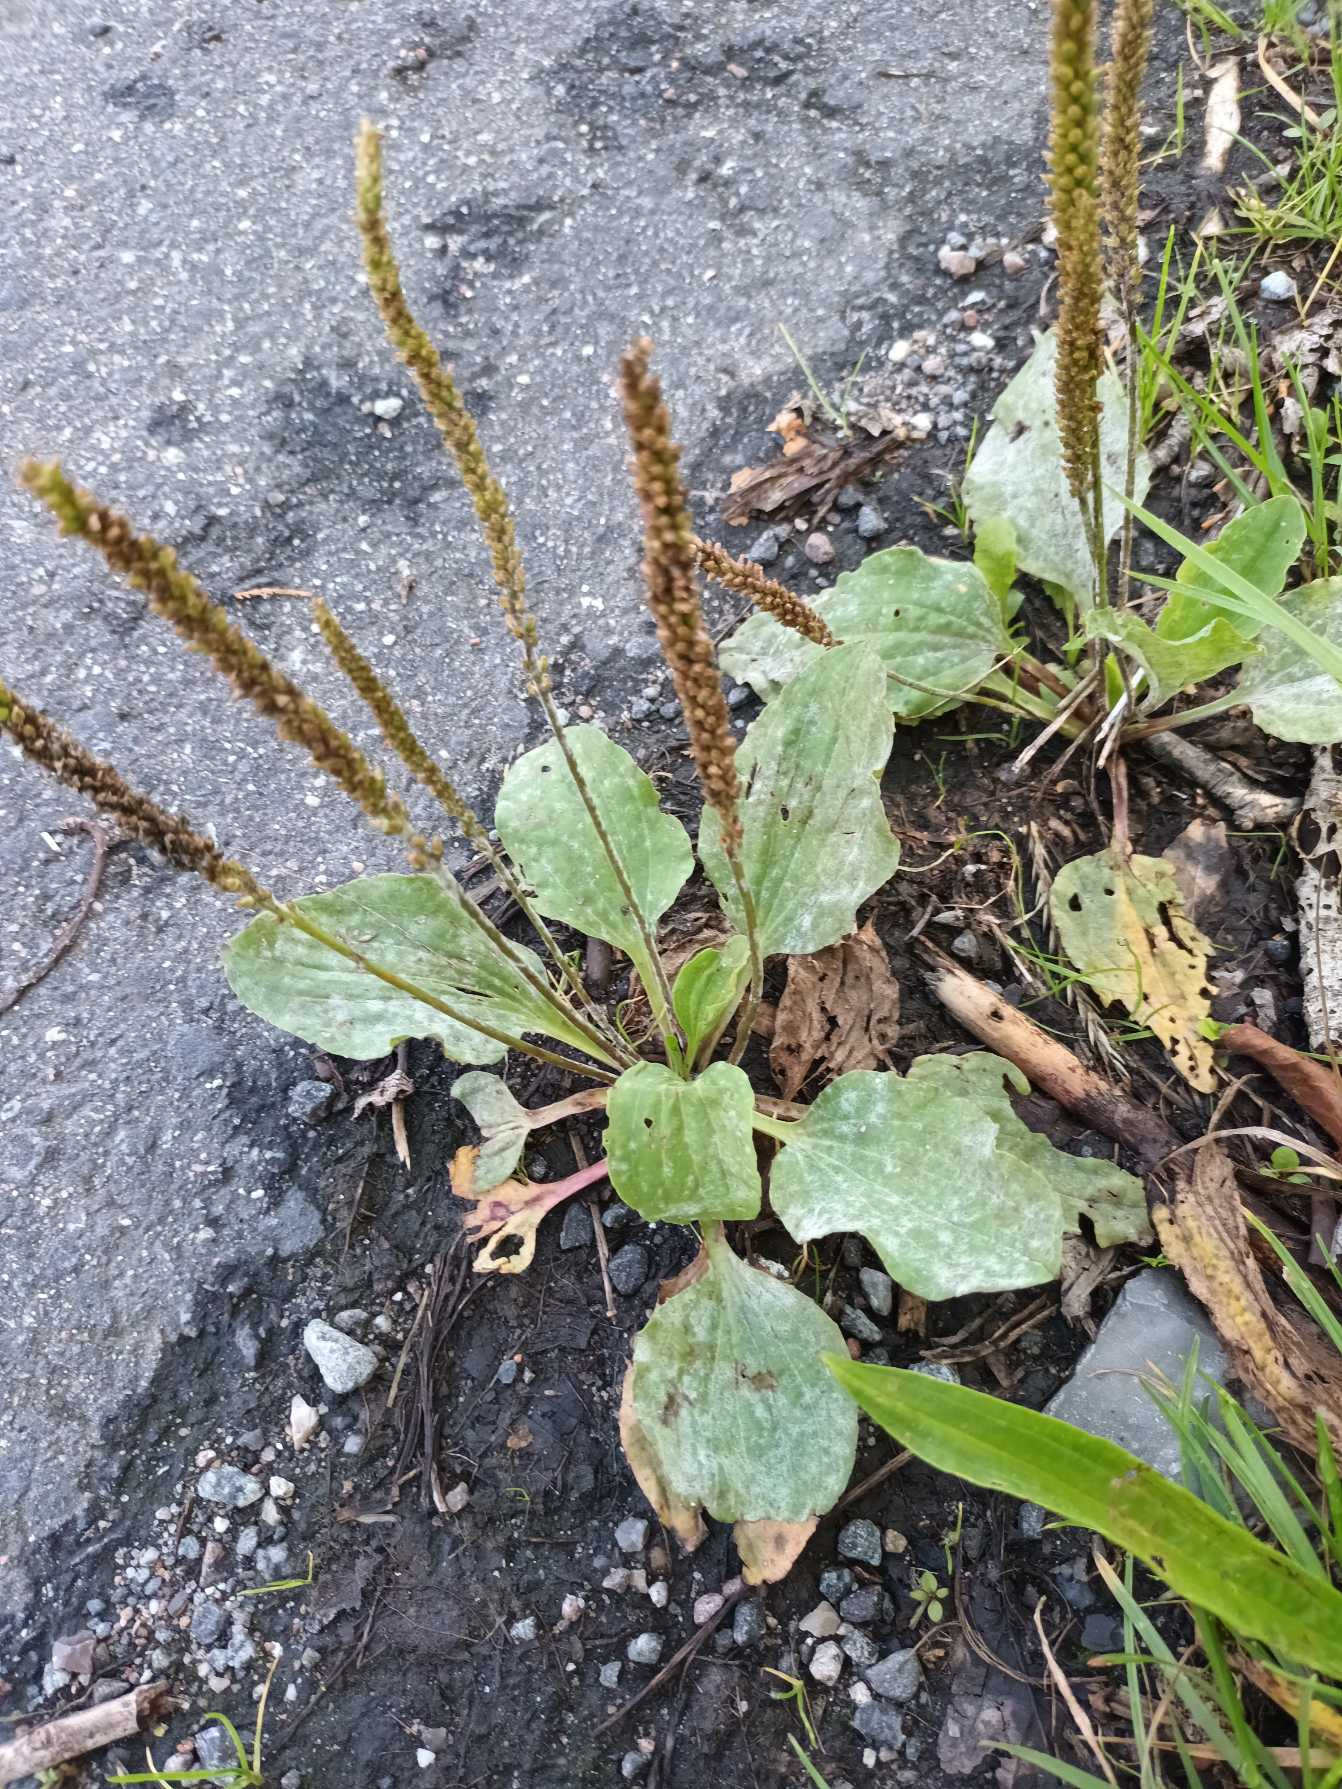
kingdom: Plantae
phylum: Tracheophyta
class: Magnoliopsida
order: Lamiales
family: Plantaginaceae
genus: Plantago
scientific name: Plantago major
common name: Glat vejbred
